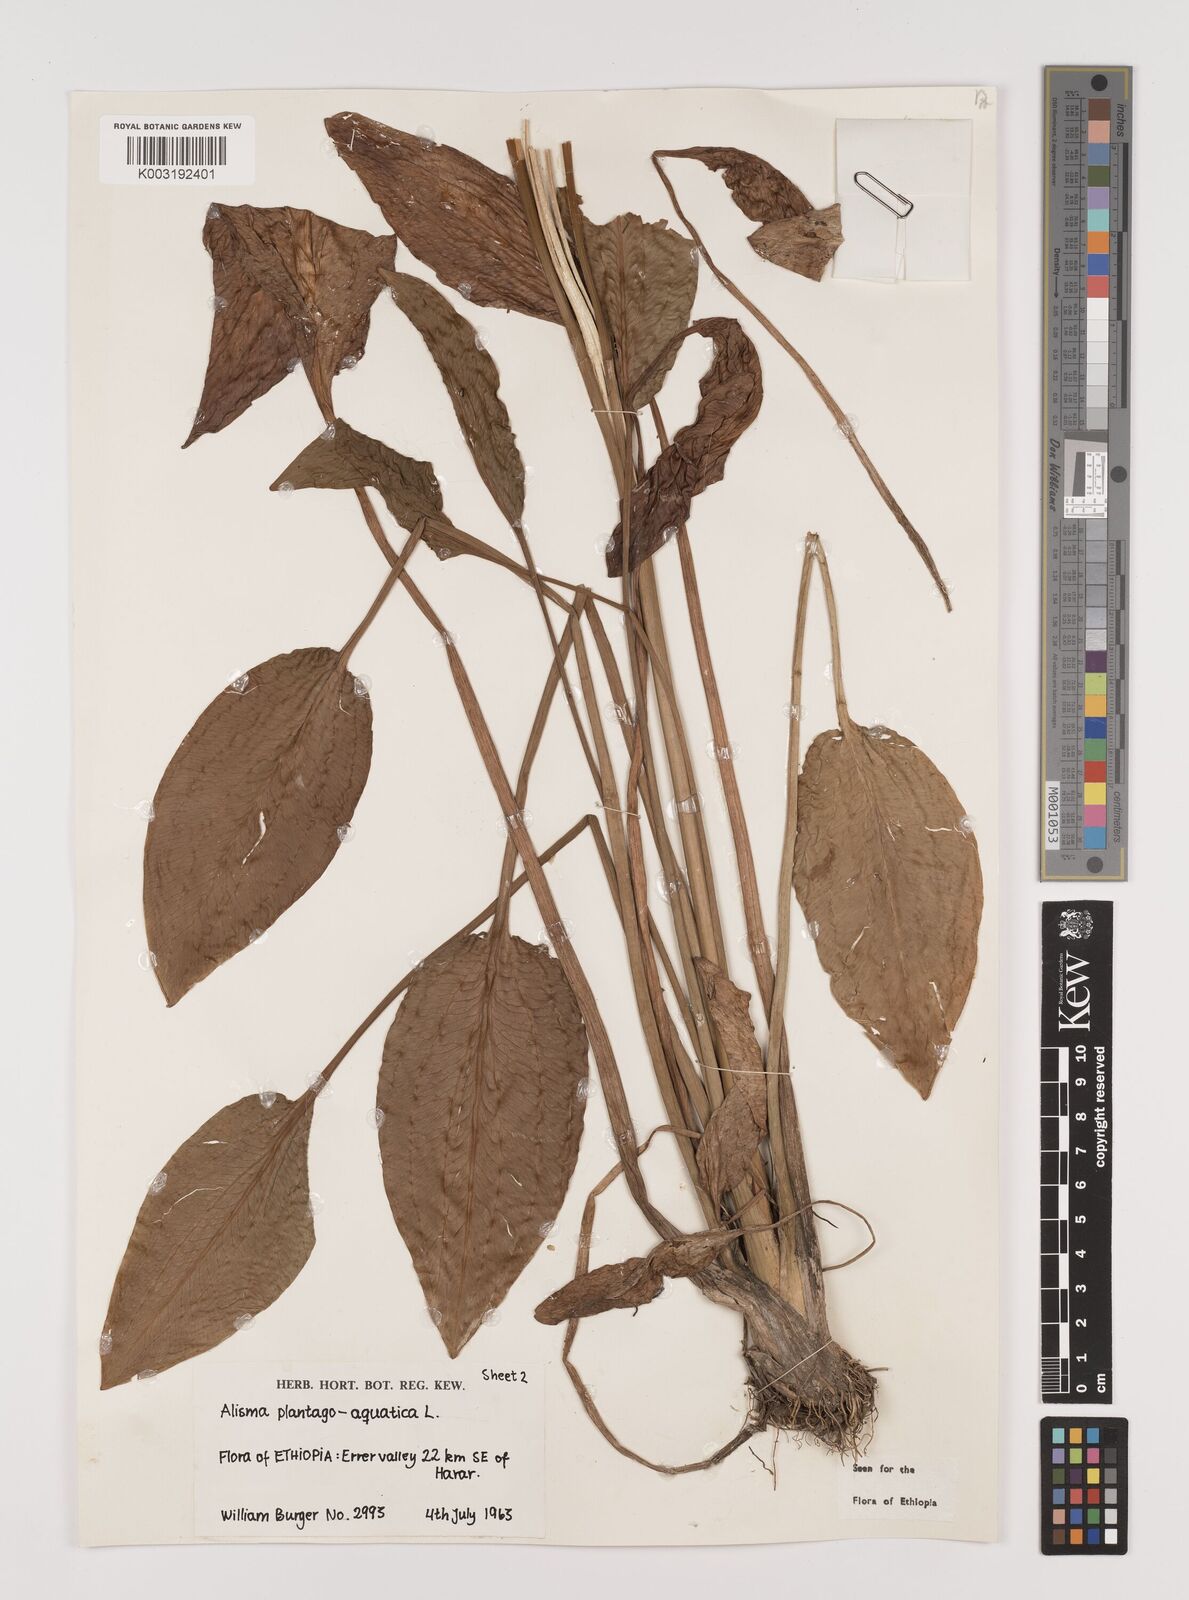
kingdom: Plantae
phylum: Tracheophyta
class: Liliopsida
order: Alismatales
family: Alismataceae
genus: Alisma
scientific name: Alisma plantago-aquatica
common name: Water-plantain
